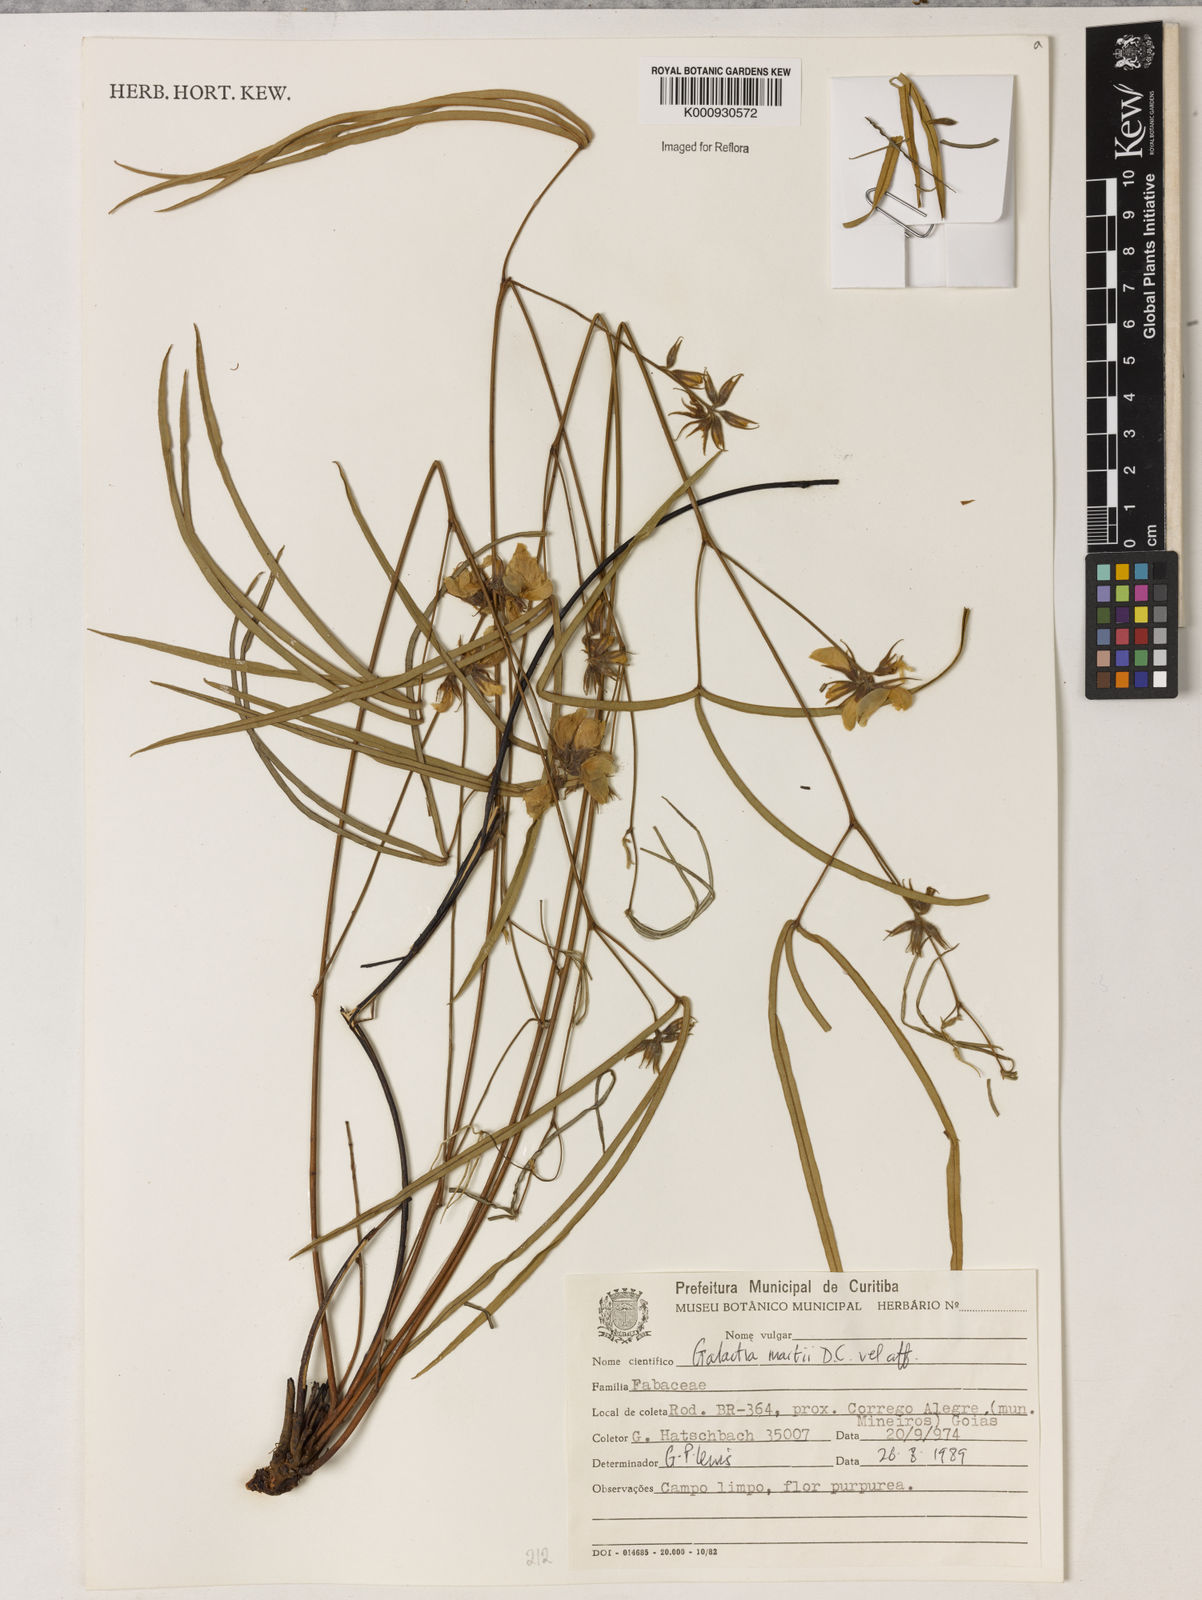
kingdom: Plantae
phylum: Tracheophyta
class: Magnoliopsida
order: Fabales
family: Fabaceae
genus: Betencourtia
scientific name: Betencourtia martii
